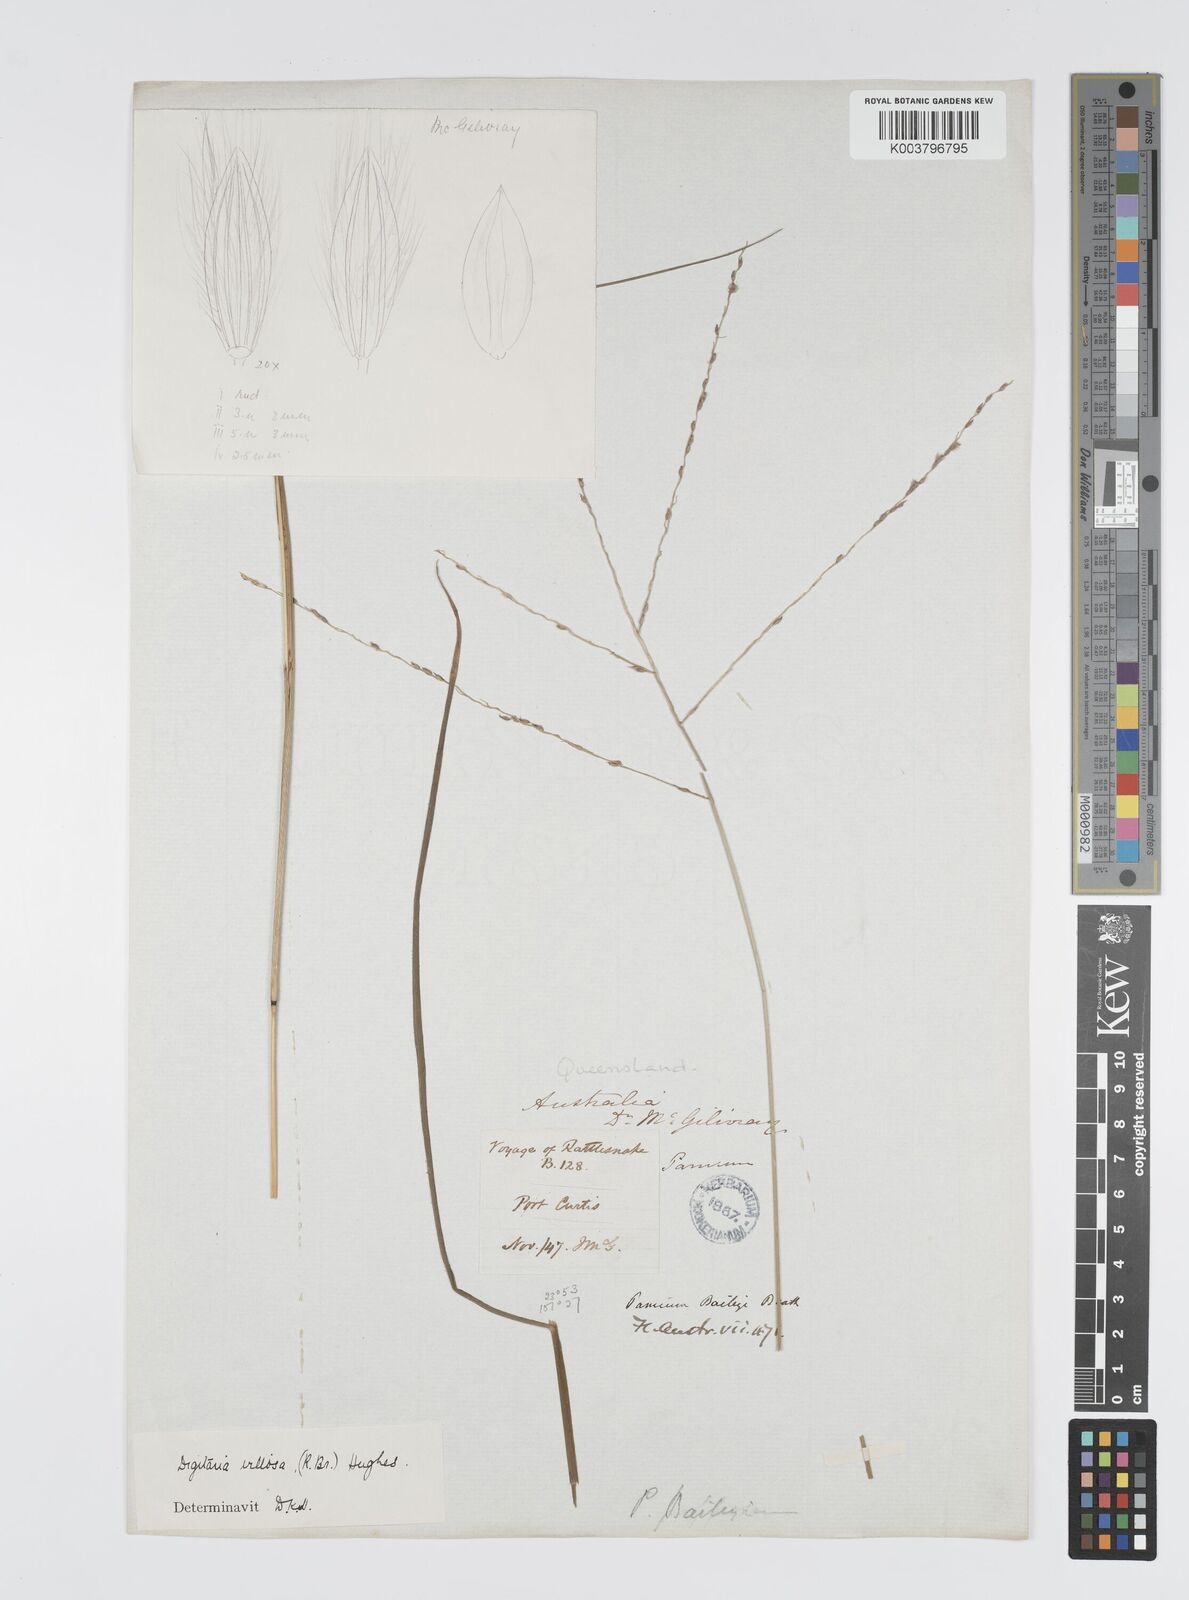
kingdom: Plantae
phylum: Tracheophyta
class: Liliopsida
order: Poales
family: Poaceae
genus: Digitaria
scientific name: Digitaria brownii
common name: Cotton grass
